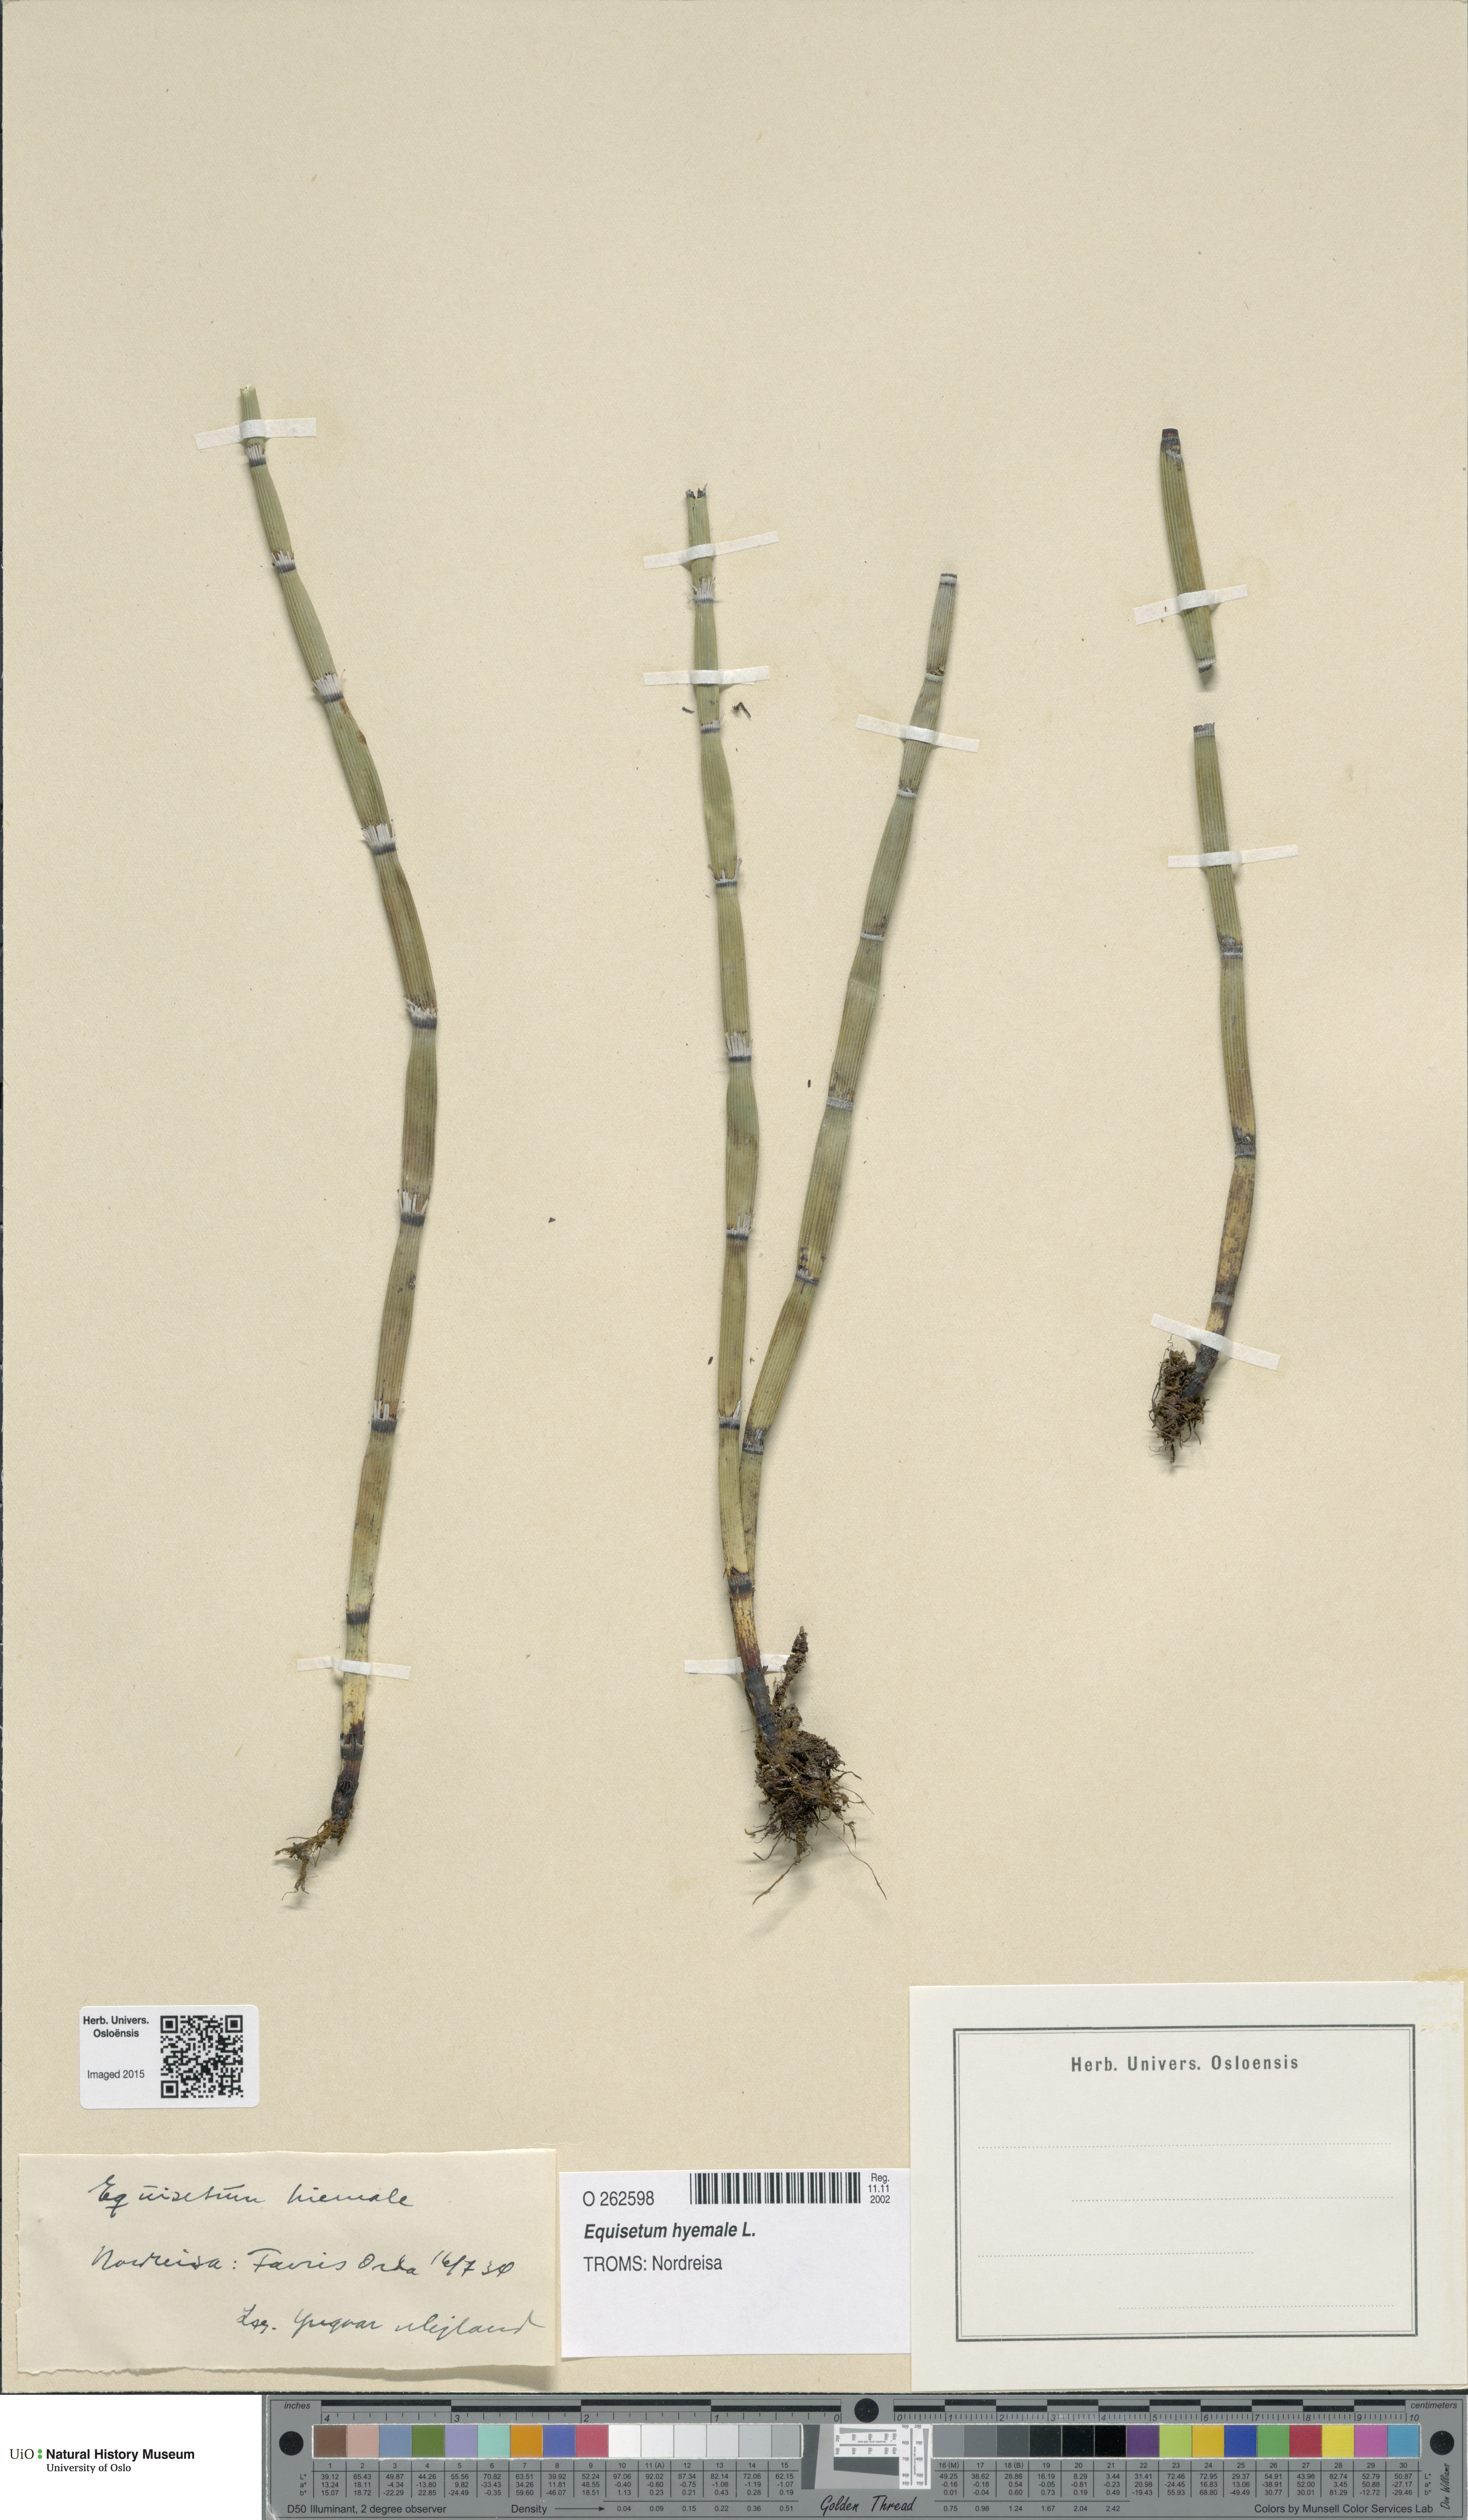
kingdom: Plantae
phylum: Tracheophyta
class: Polypodiopsida
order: Equisetales
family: Equisetaceae
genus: Equisetum
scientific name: Equisetum hyemale
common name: Rough horsetail
